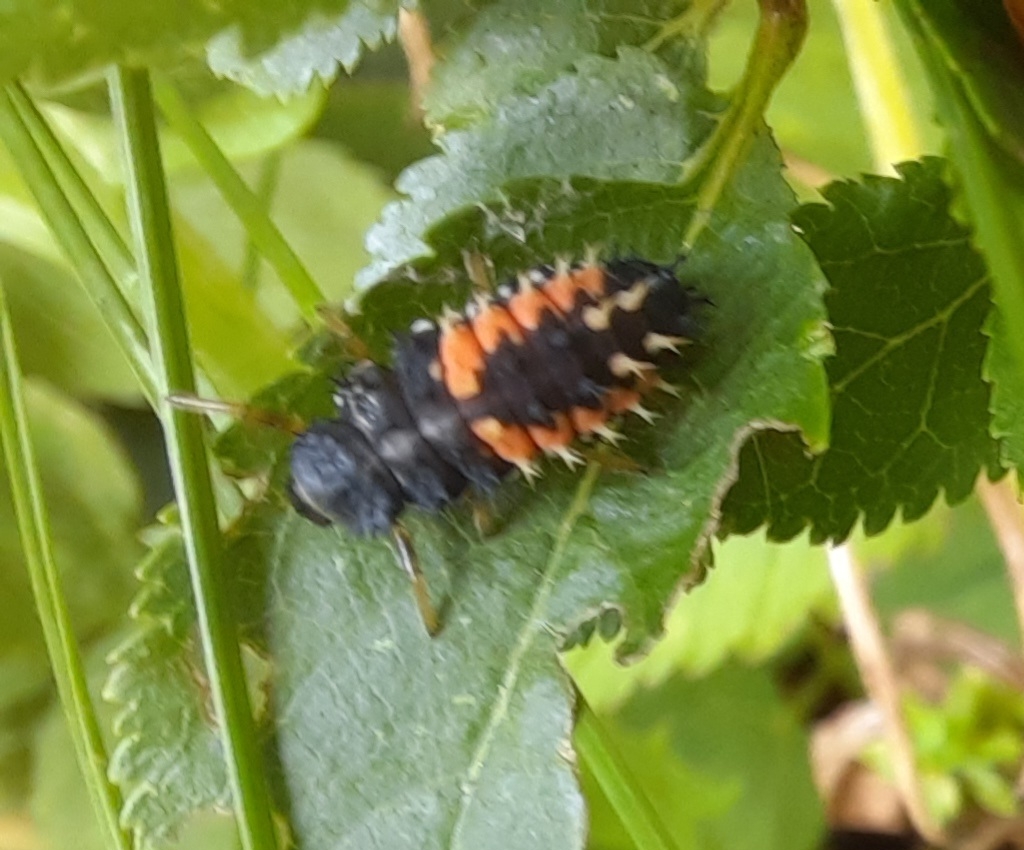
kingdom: Animalia
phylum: Arthropoda
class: Insecta
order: Coleoptera
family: Coccinellidae
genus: Harmonia
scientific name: Harmonia axyridis
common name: Harlekinmariehøne
